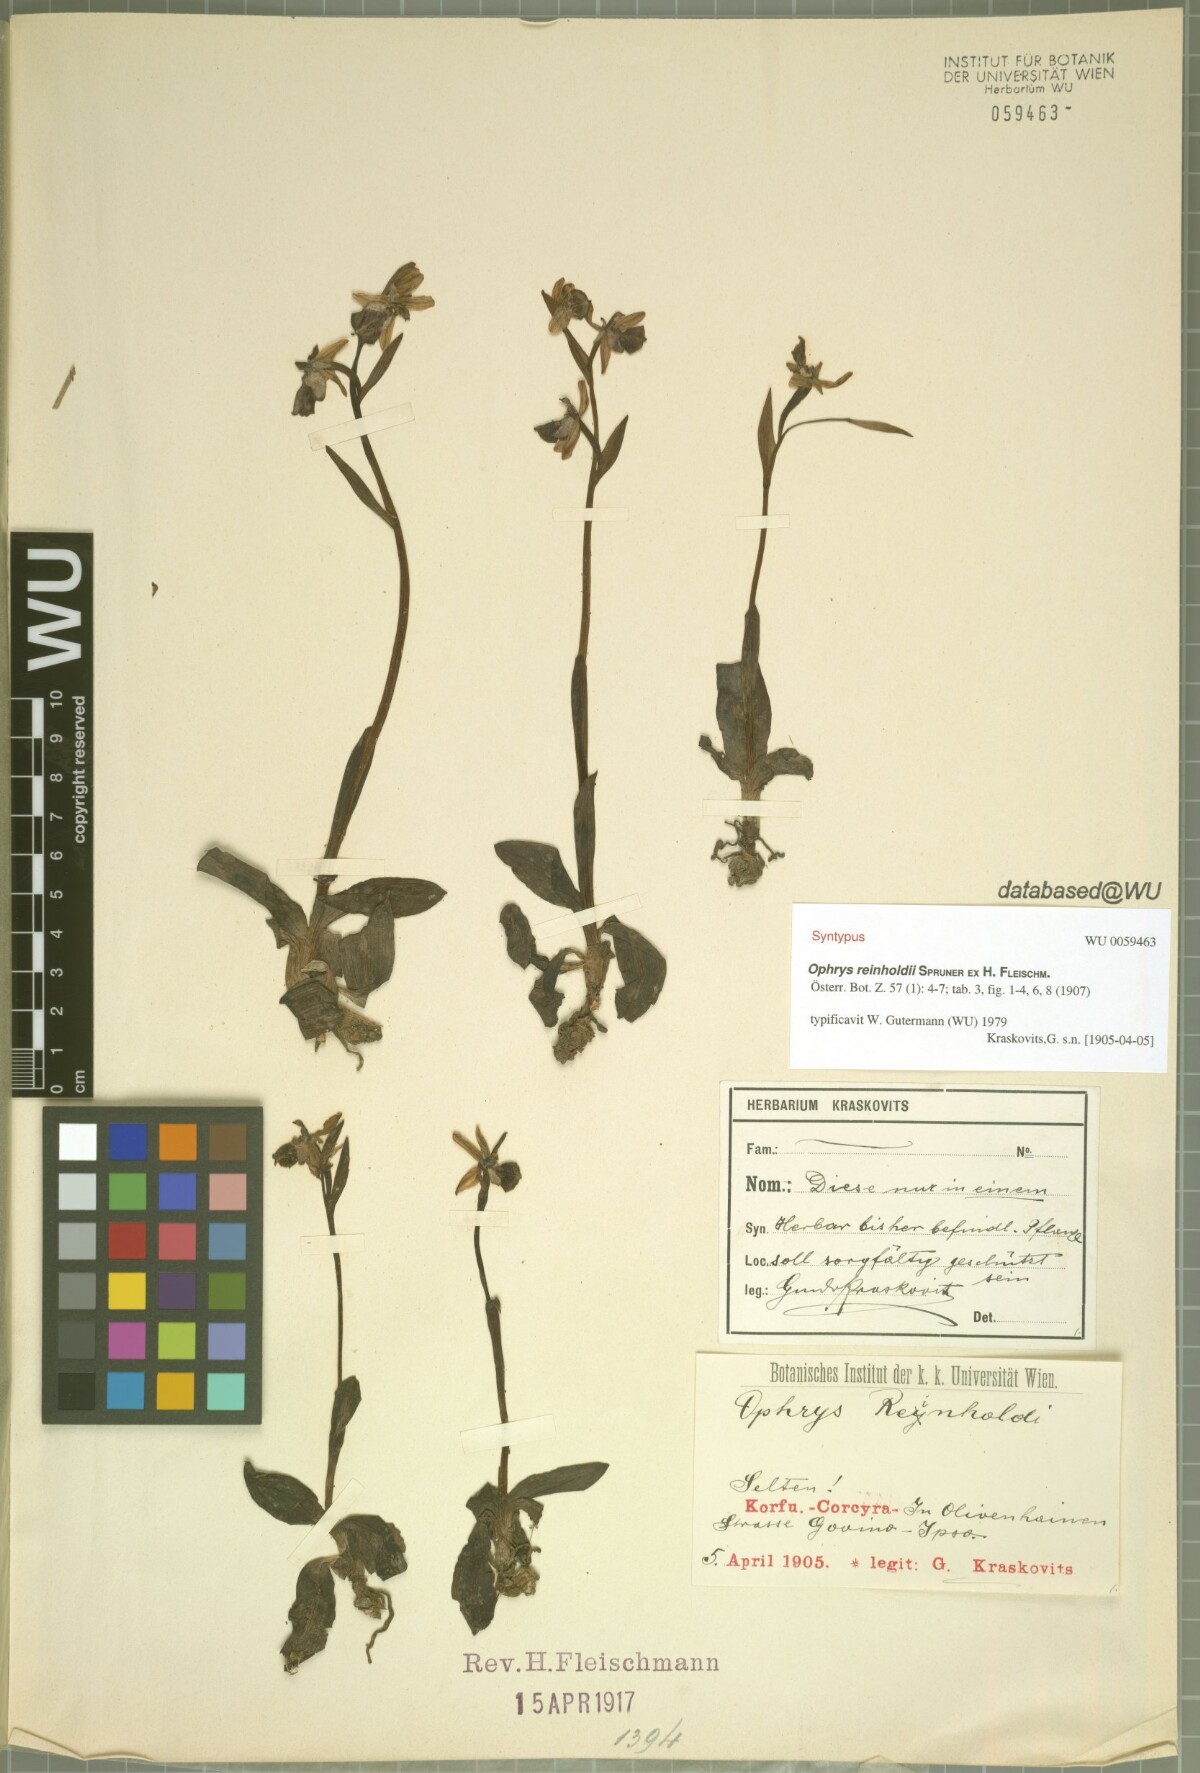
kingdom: Plantae
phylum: Tracheophyta
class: Liliopsida
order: Asparagales
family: Orchidaceae
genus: Ophrys
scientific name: Ophrys reinholdii
